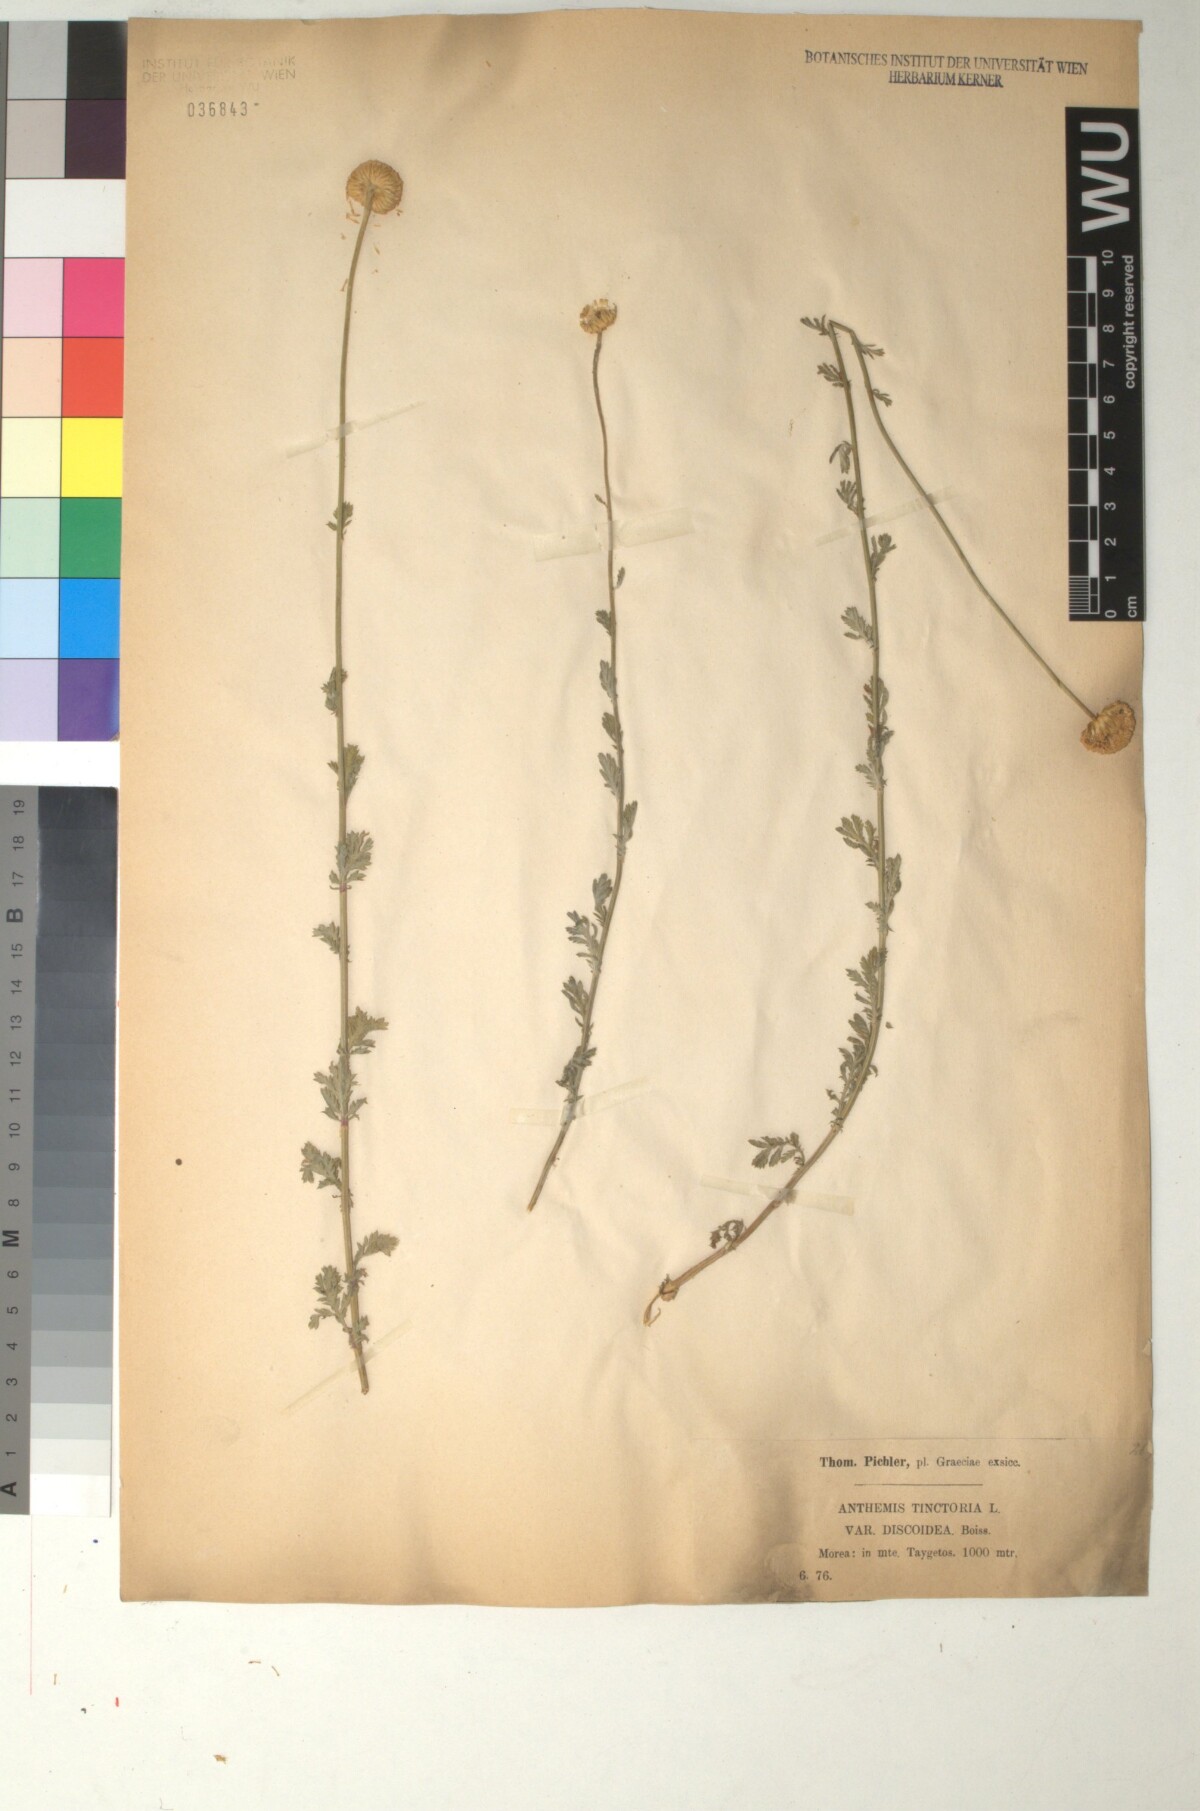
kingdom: Plantae
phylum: Tracheophyta
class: Magnoliopsida
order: Asterales
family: Asteraceae
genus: Cota
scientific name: Cota tinctoria
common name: Golden chamomile
